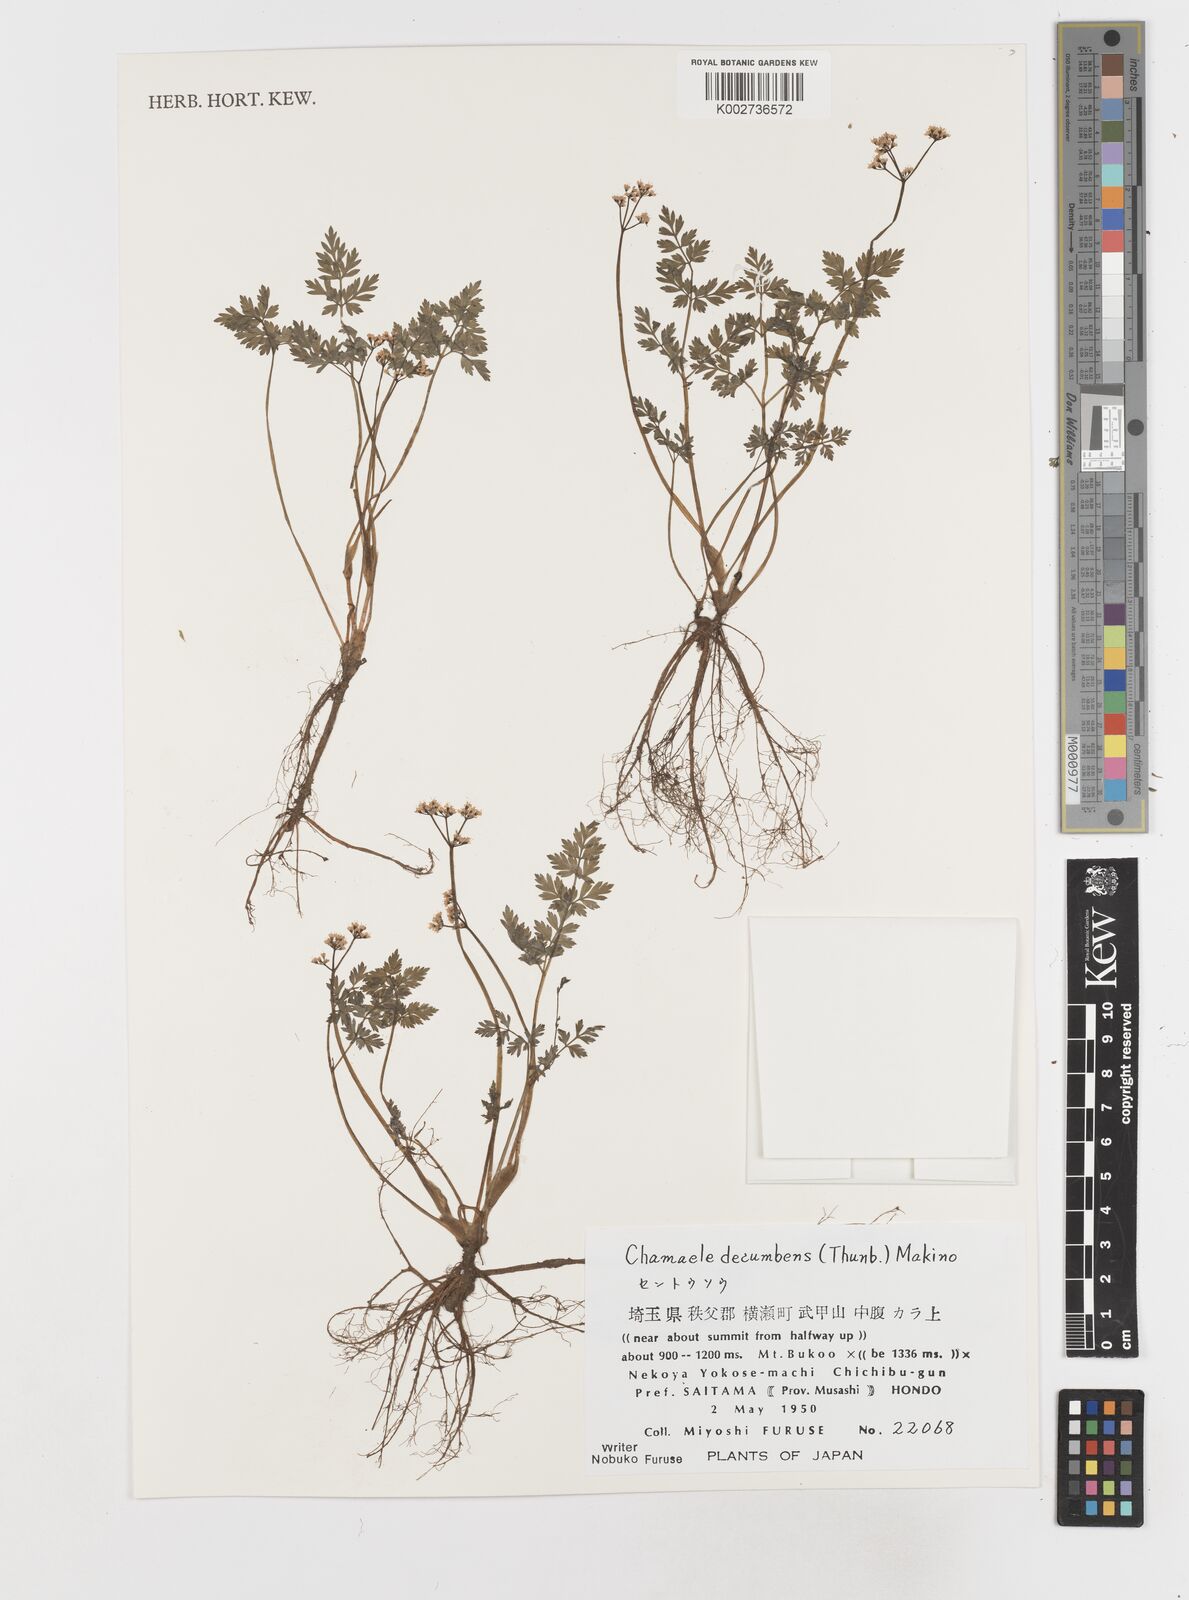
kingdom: Plantae
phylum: Tracheophyta
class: Magnoliopsida
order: Apiales
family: Apiaceae
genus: Aegopodium
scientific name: Aegopodium decumbens
